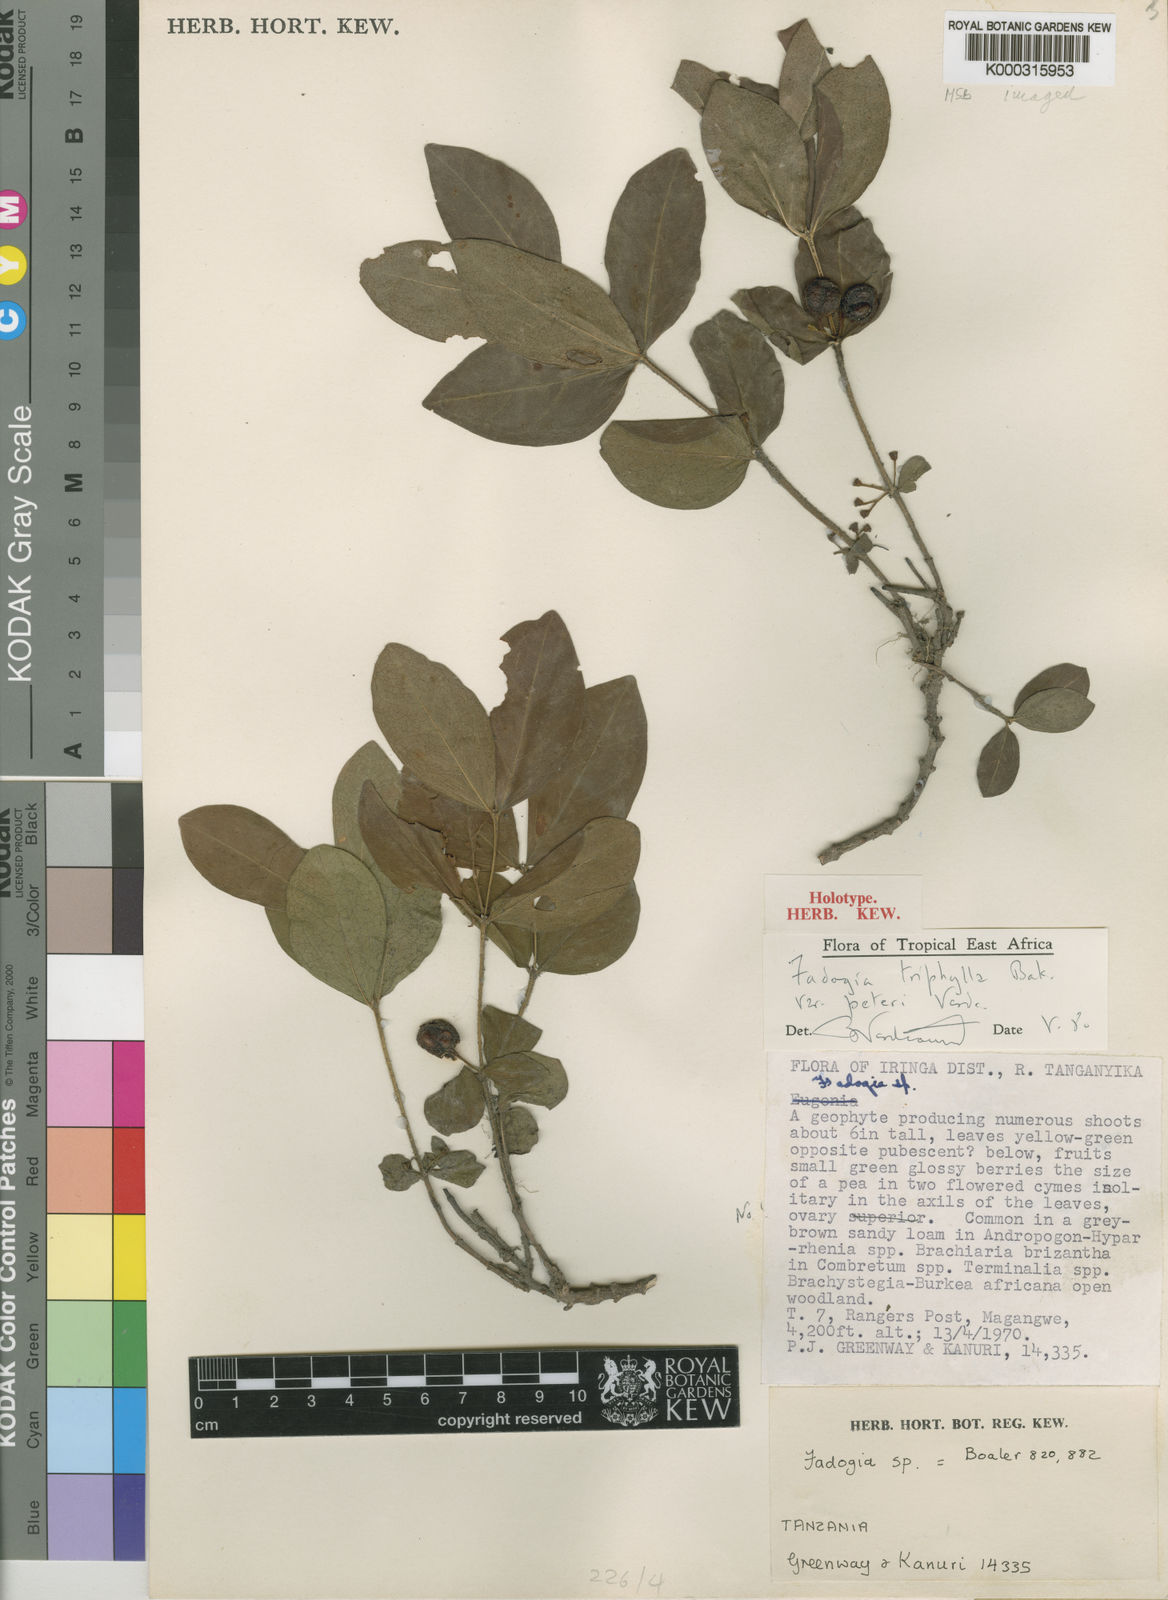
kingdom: Plantae
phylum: Tracheophyta
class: Magnoliopsida
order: Gentianales
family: Rubiaceae
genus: Fadogia
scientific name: Fadogia triphylla
